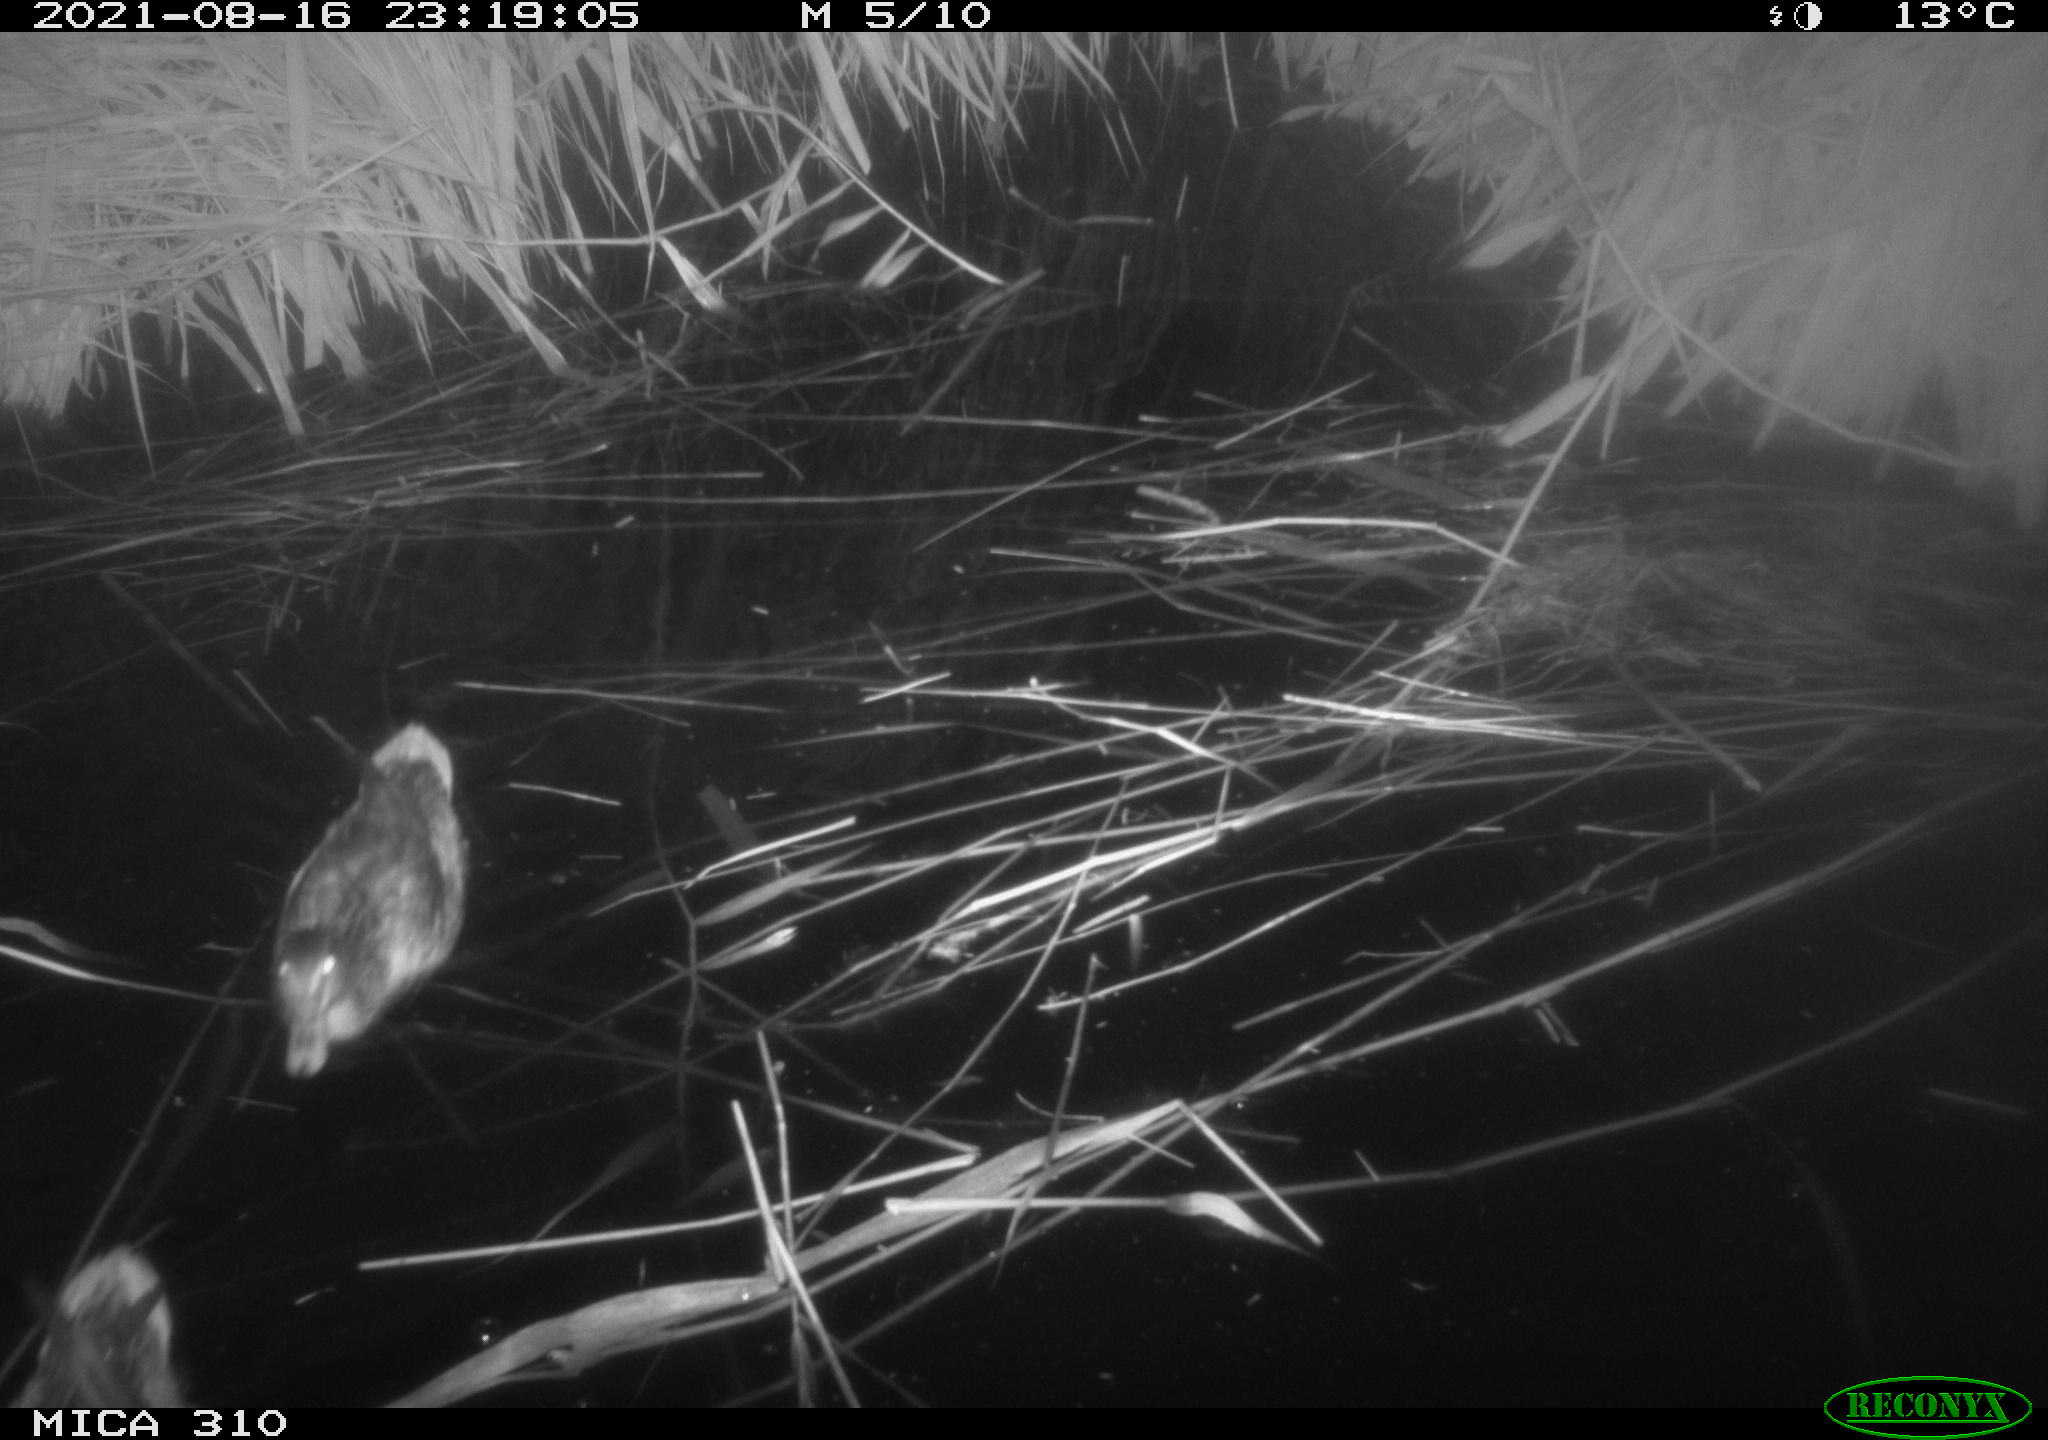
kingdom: Animalia
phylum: Chordata
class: Aves
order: Anseriformes
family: Anatidae
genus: Anas
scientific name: Anas platyrhynchos
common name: Mallard
